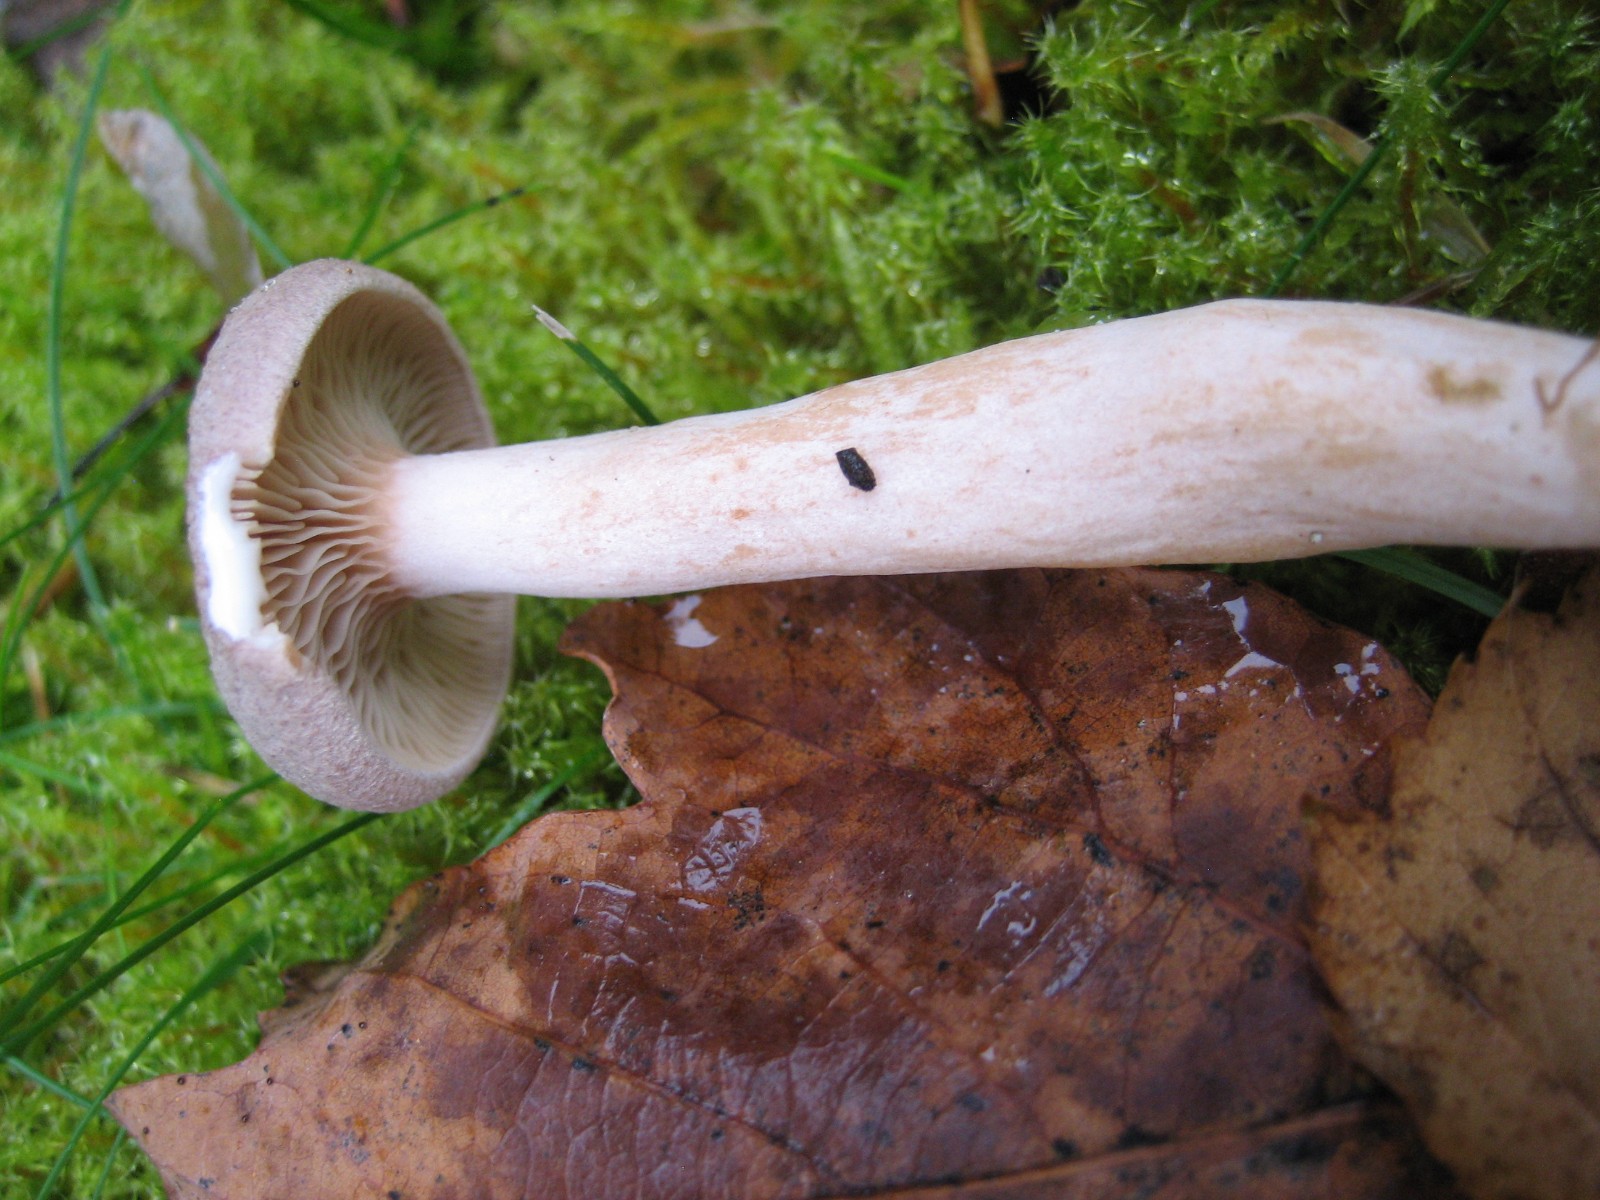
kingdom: Fungi
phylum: Basidiomycota
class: Agaricomycetes
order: Russulales
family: Russulaceae
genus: Lactarius
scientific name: Lactarius
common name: mælkehat
